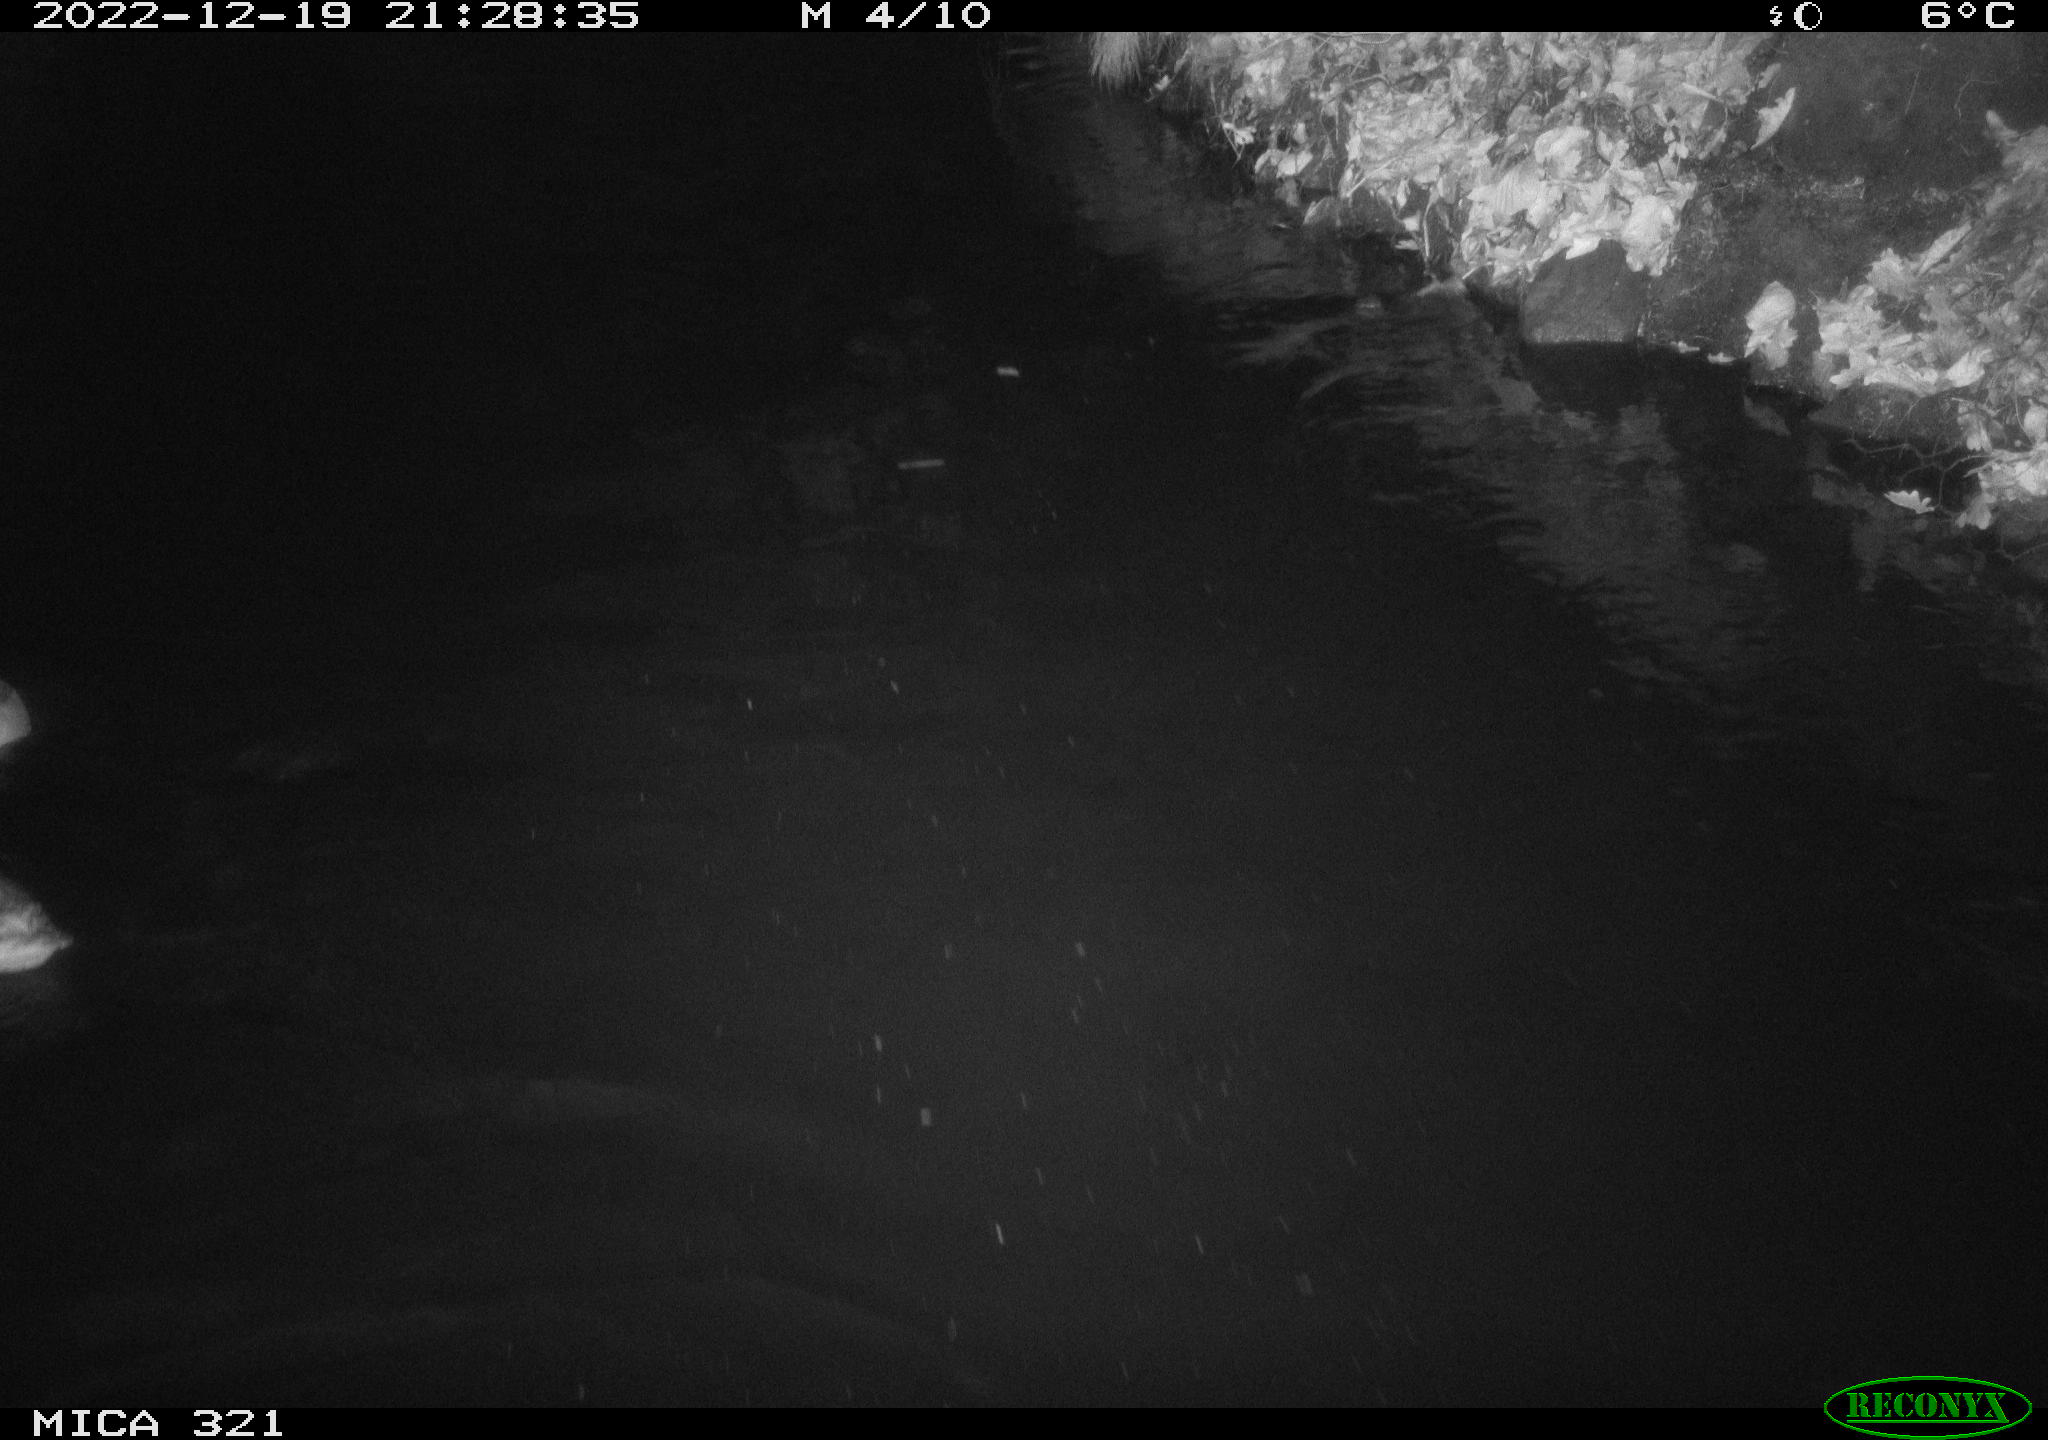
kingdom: Animalia
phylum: Chordata
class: Aves
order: Anseriformes
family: Anatidae
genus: Anas
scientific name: Anas
